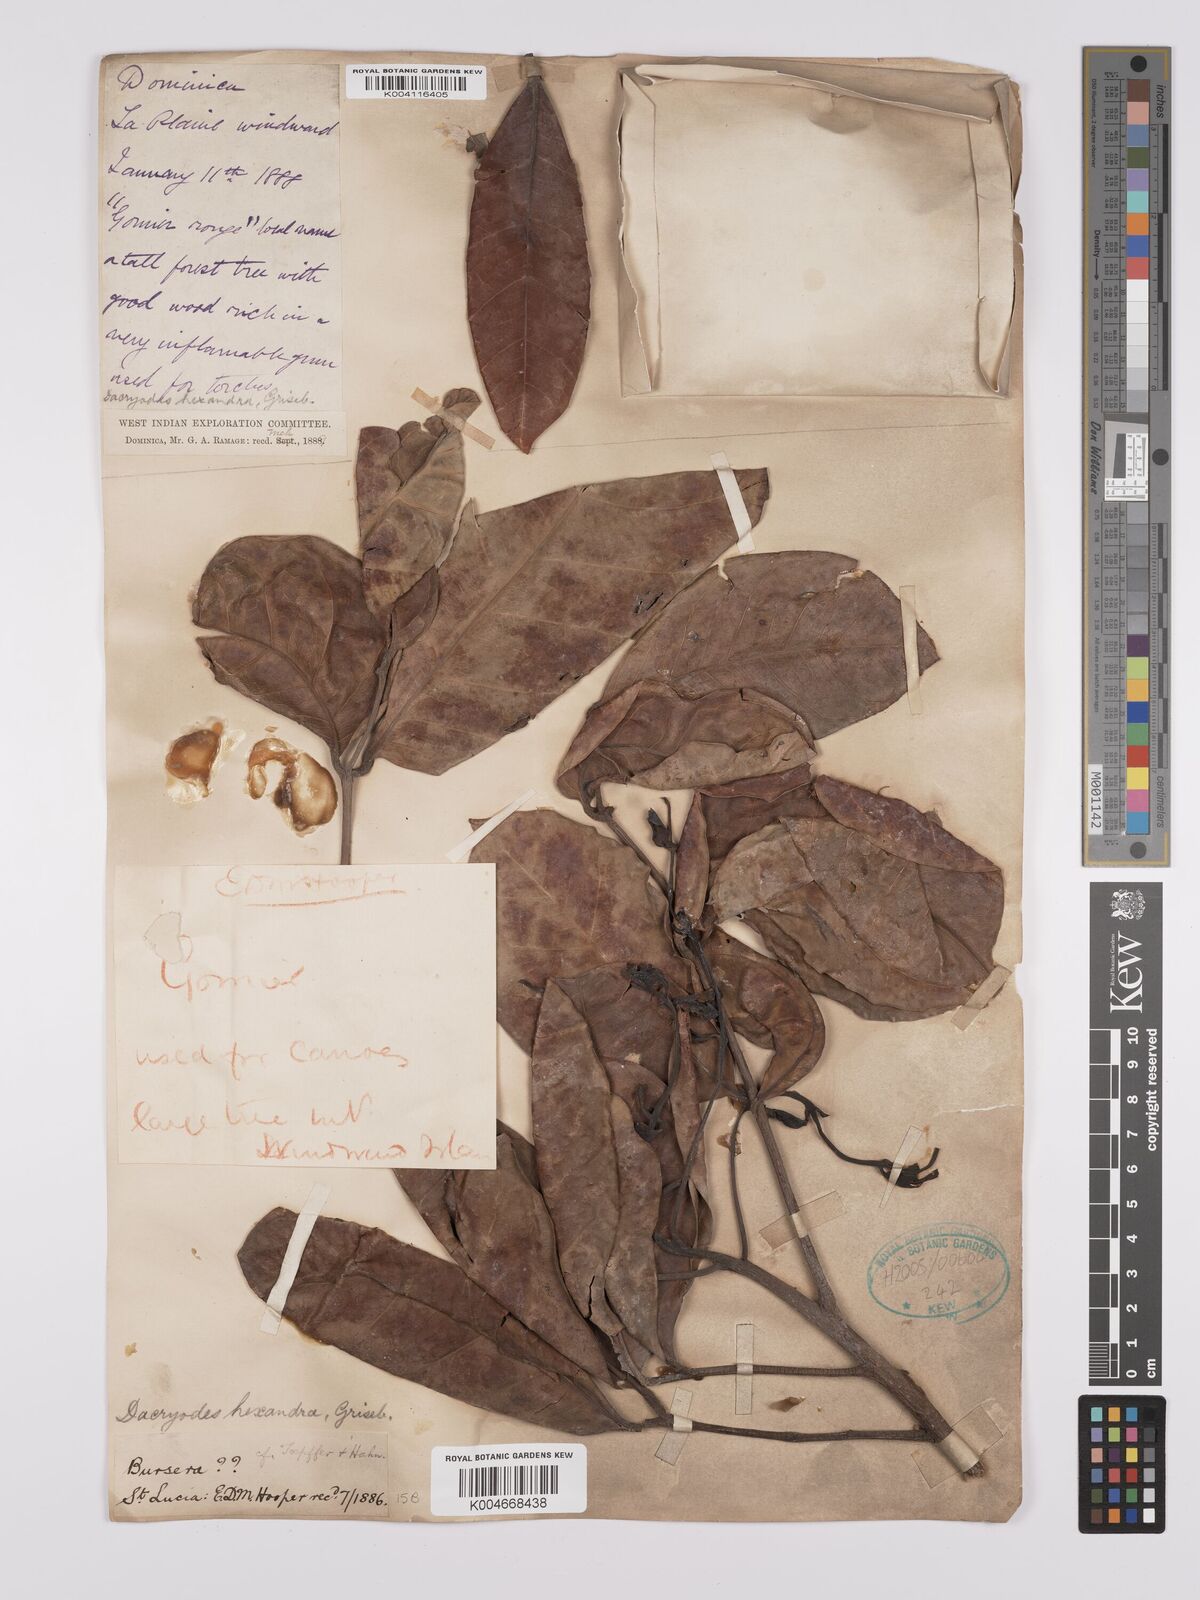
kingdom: Plantae
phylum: Tracheophyta
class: Magnoliopsida
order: Sapindales
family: Burseraceae
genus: Dacryodes
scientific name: Dacryodes excelsa
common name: Candlewood
